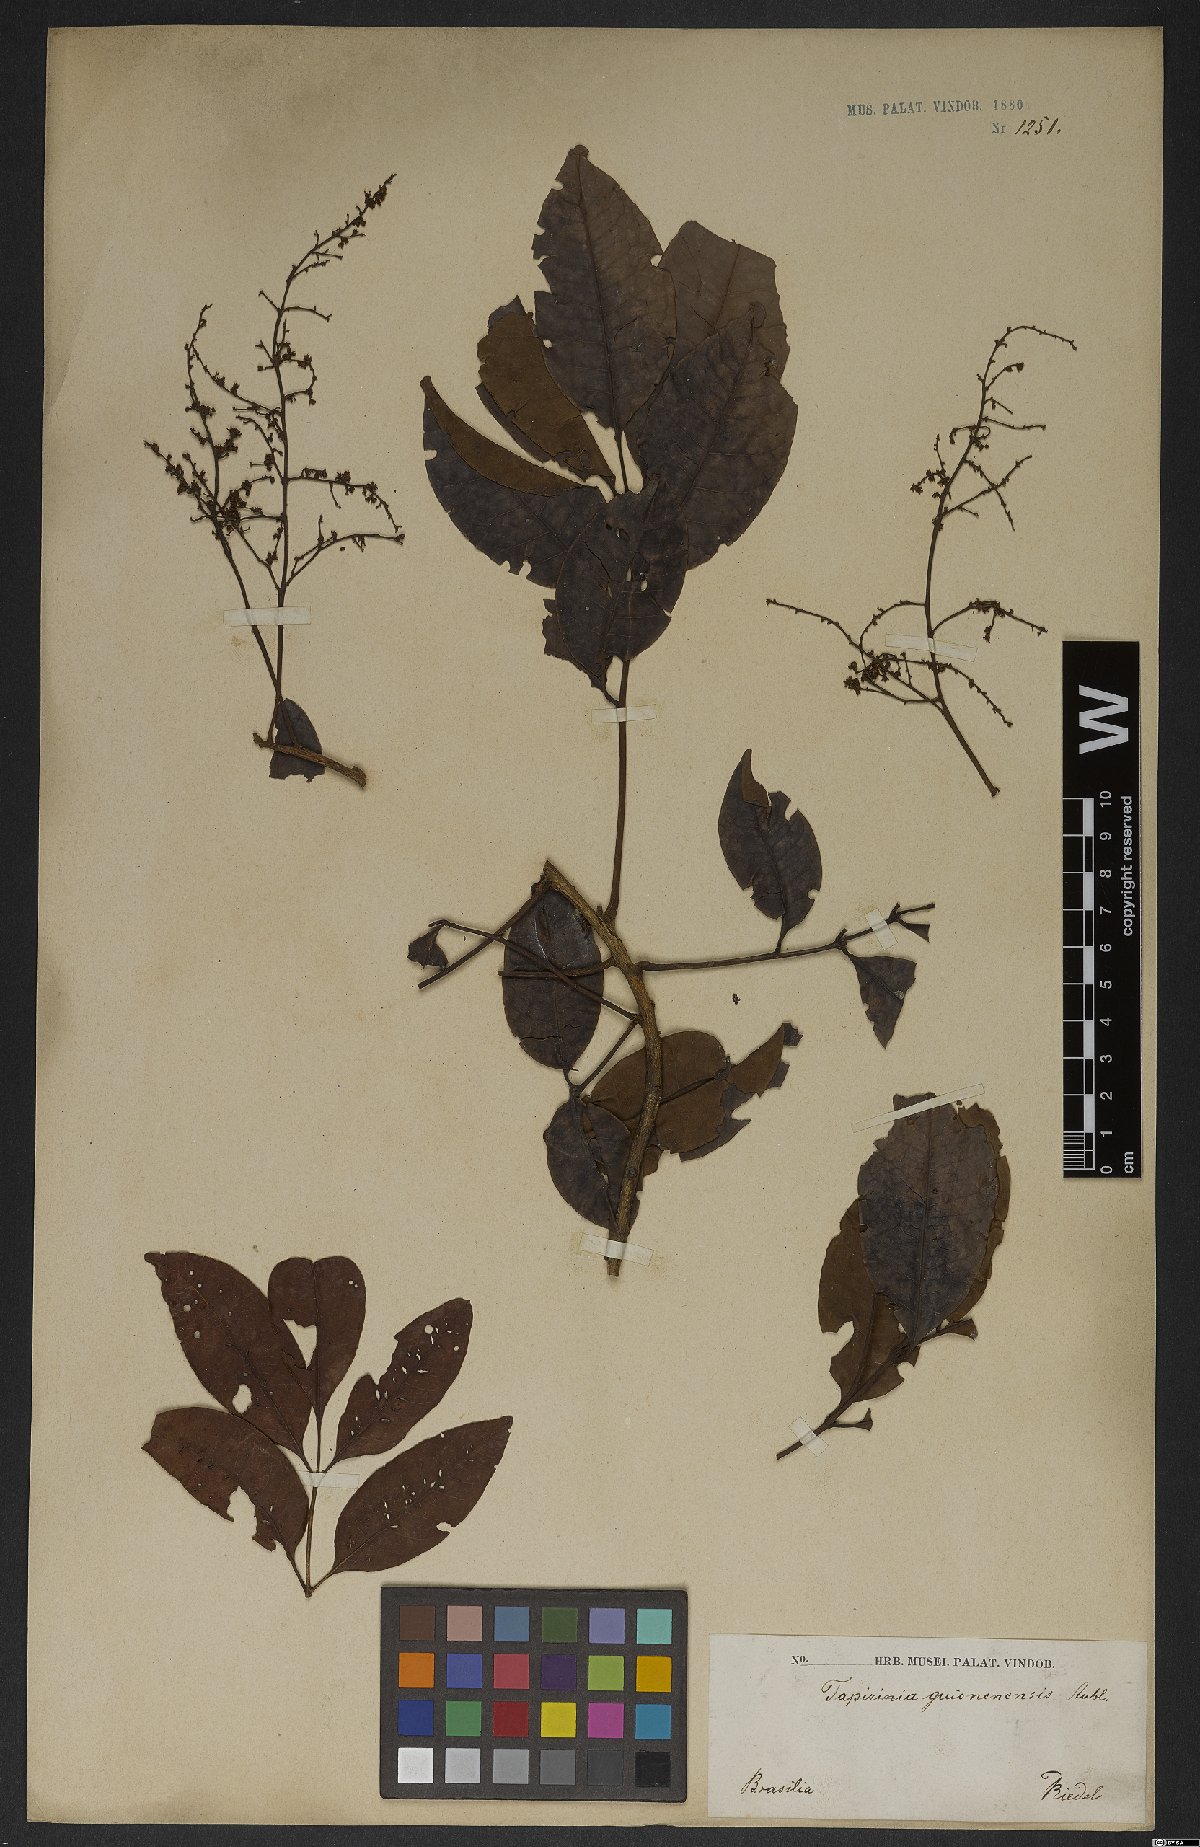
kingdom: Plantae
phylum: Tracheophyta
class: Magnoliopsida
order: Sapindales
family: Anacardiaceae
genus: Tapirira
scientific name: Tapirira guianensis
